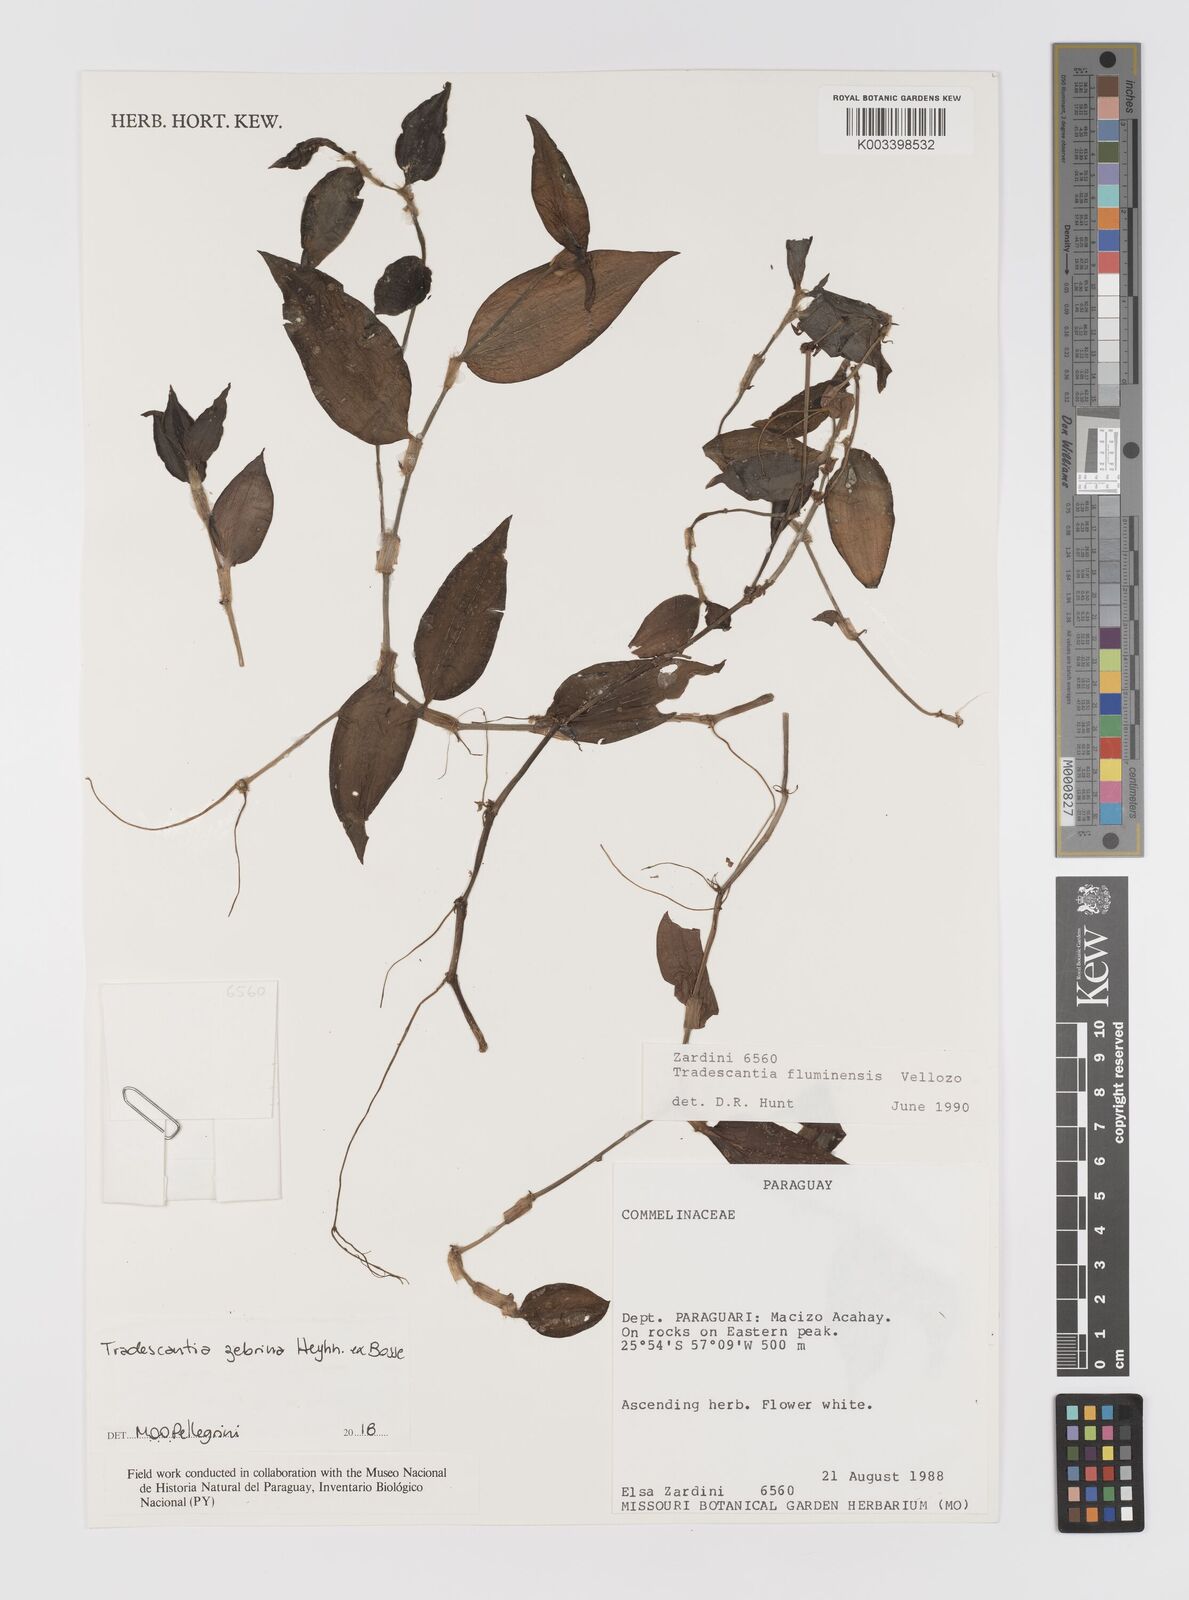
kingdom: Plantae
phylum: Tracheophyta
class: Liliopsida
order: Commelinales
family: Commelinaceae
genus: Tradescantia
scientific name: Tradescantia zebrina
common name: Inchplant
